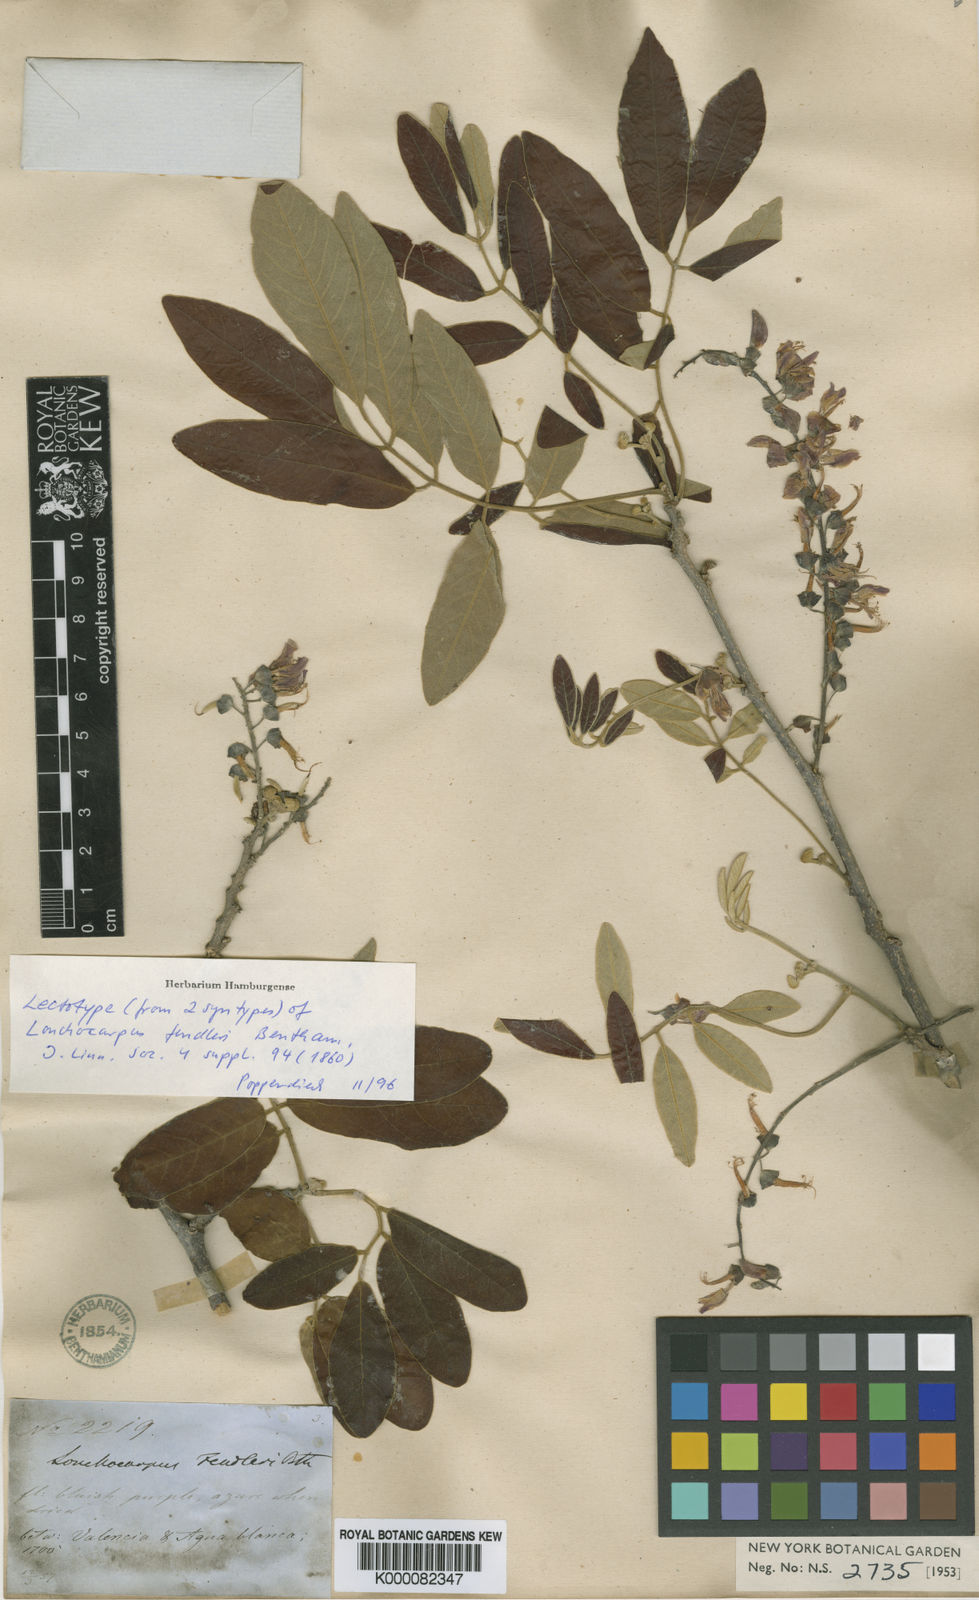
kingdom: Plantae
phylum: Tracheophyta
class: Magnoliopsida
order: Fabales
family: Fabaceae
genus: Muellera
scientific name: Muellera fendleri
